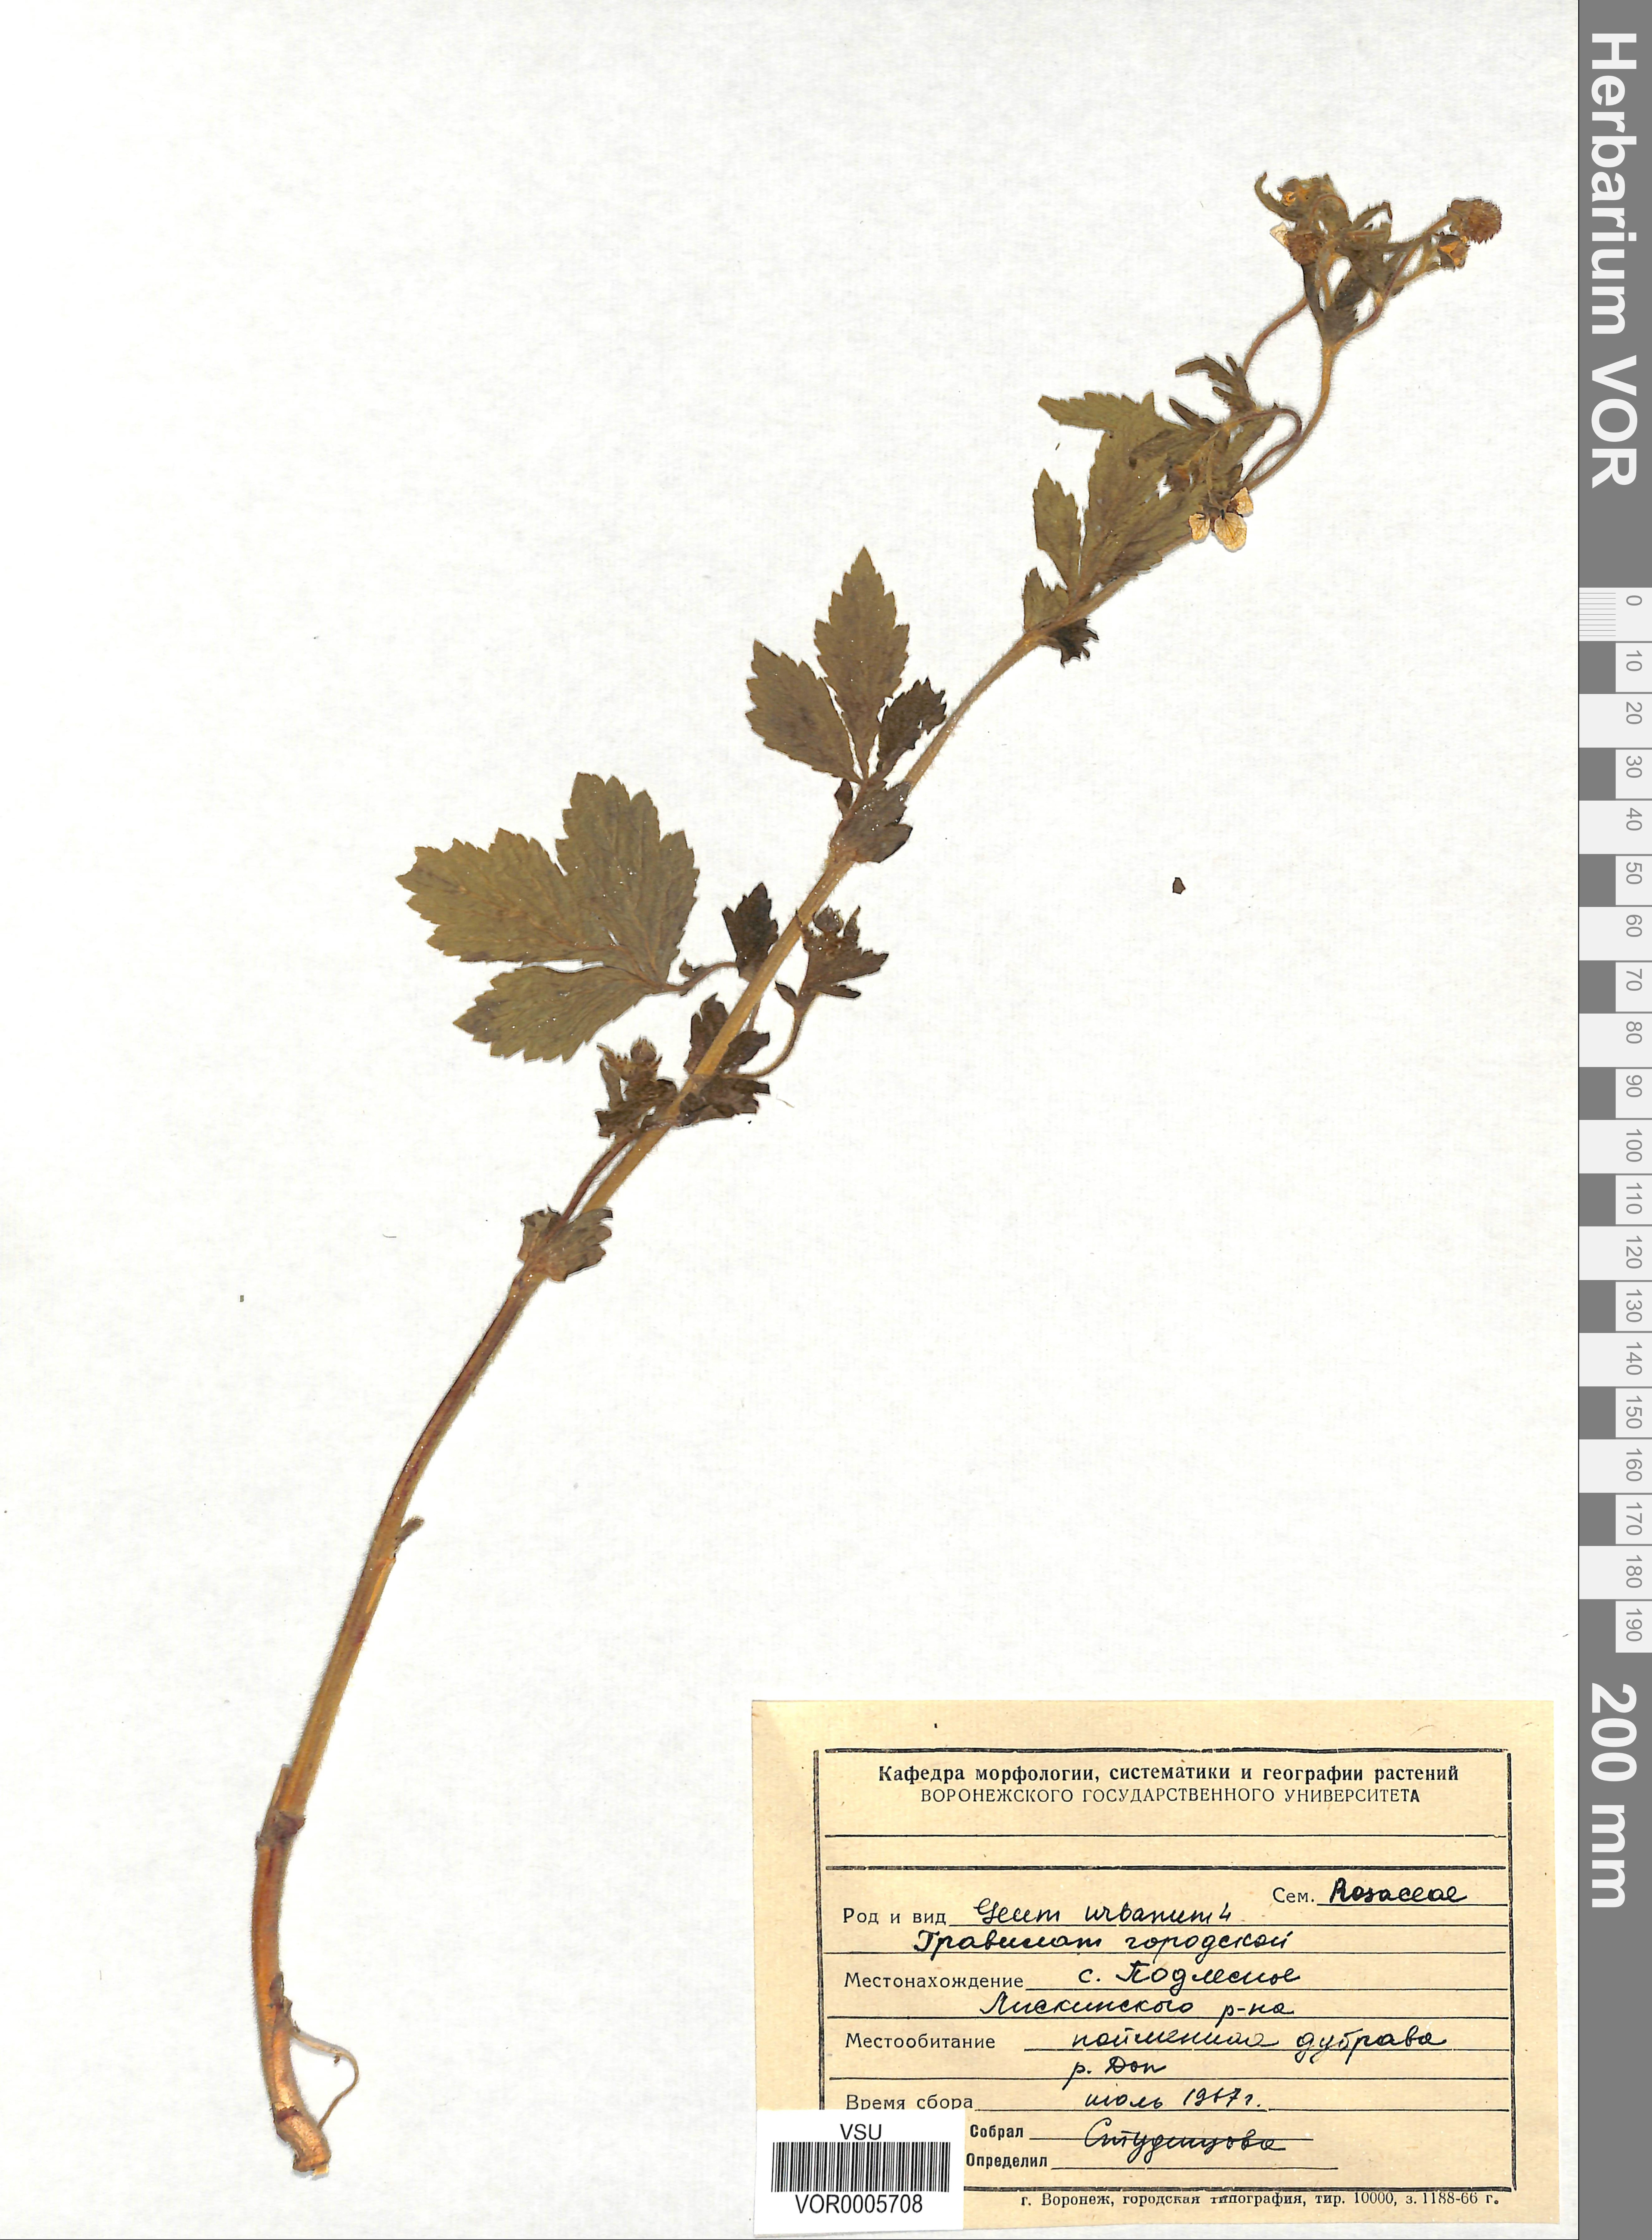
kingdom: Plantae
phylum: Tracheophyta
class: Magnoliopsida
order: Rosales
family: Rosaceae
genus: Geum
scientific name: Geum urbanum
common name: Wood avens
